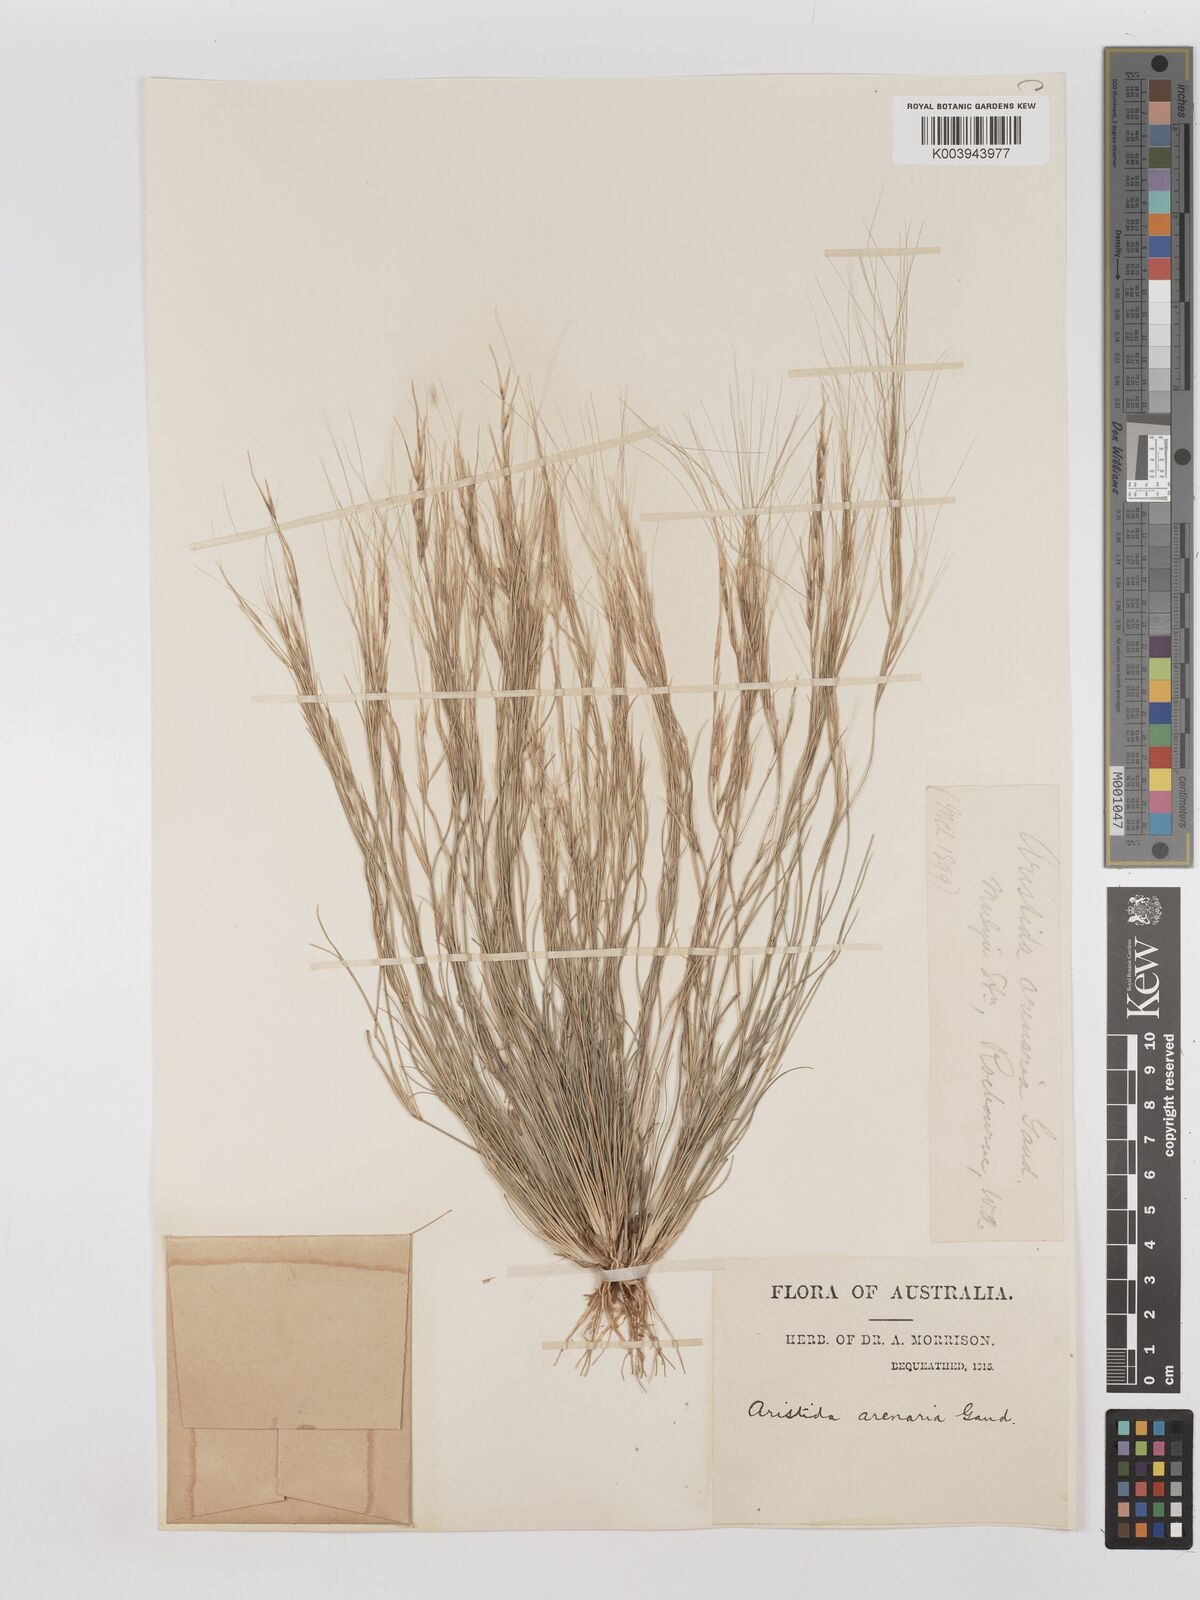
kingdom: Plantae
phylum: Tracheophyta
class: Liliopsida
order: Poales
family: Poaceae
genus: Aristida
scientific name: Aristida contorta
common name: Bunch kerosene grass
